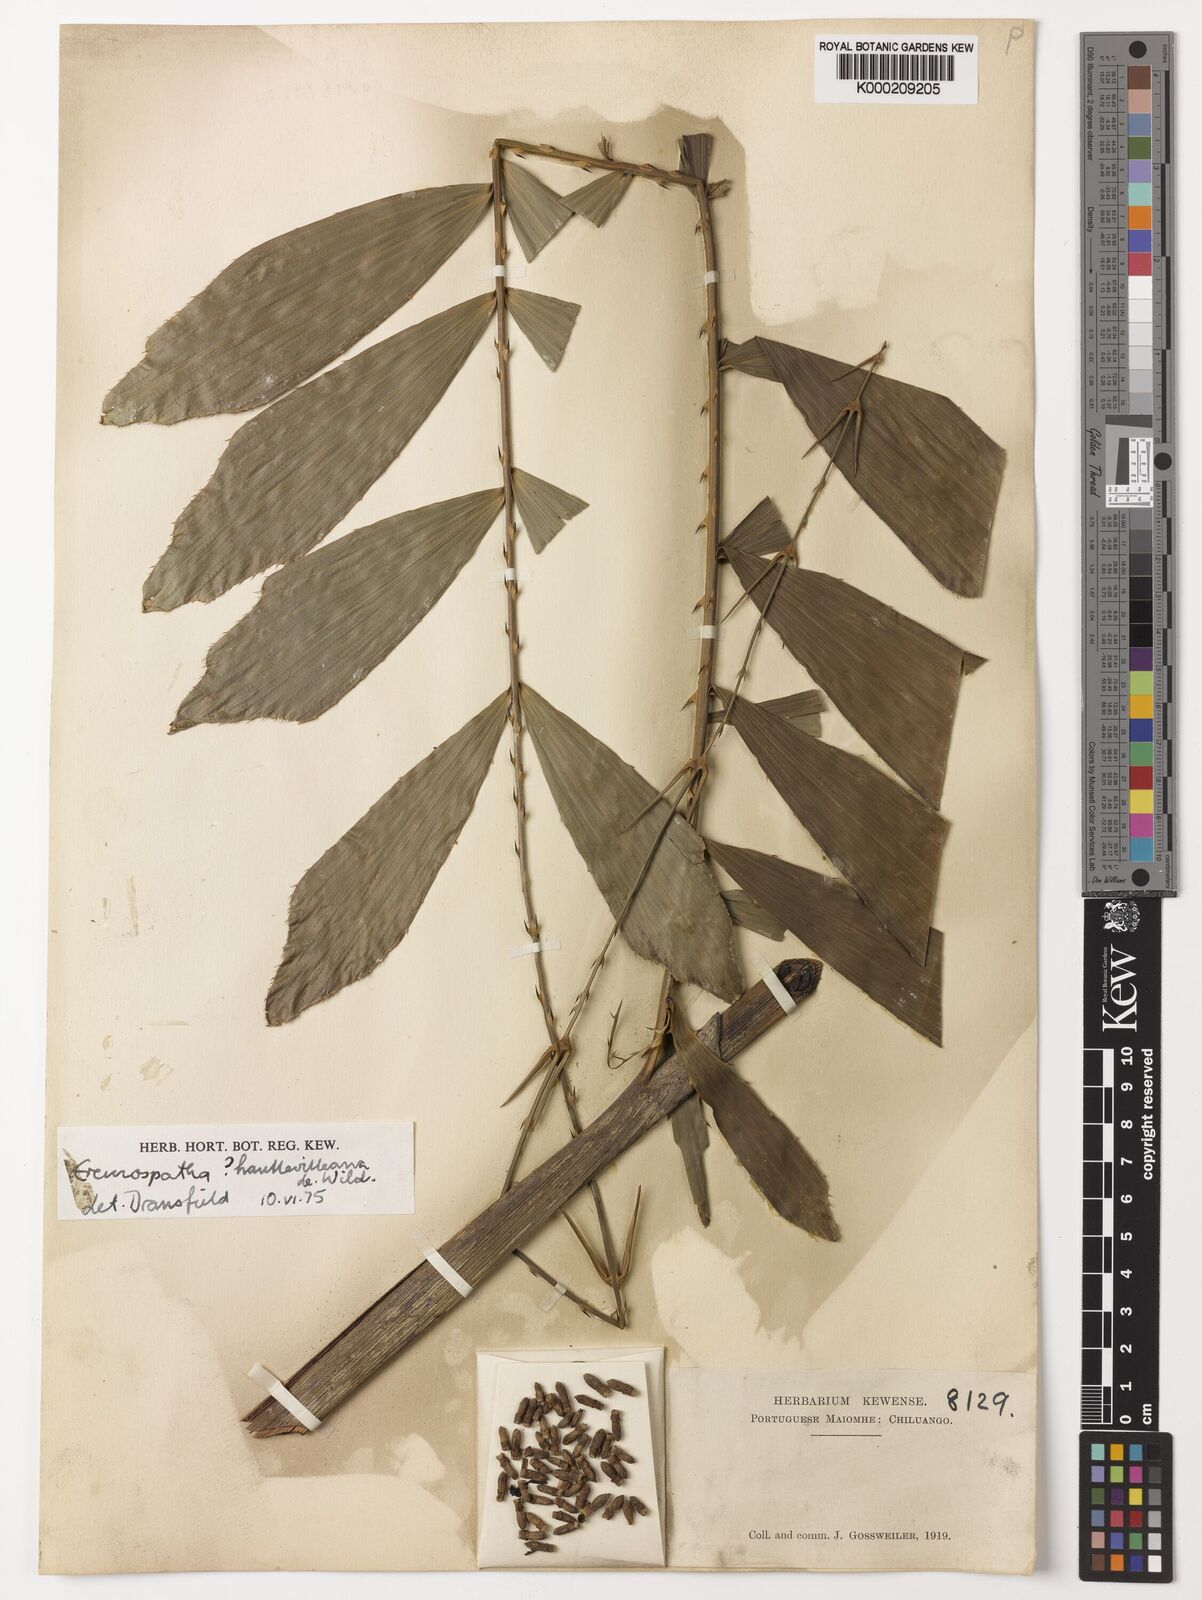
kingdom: Plantae
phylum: Tracheophyta
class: Liliopsida
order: Arecales
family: Arecaceae
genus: Eremospatha
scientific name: Eremospatha haullevilleana
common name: Rattan
